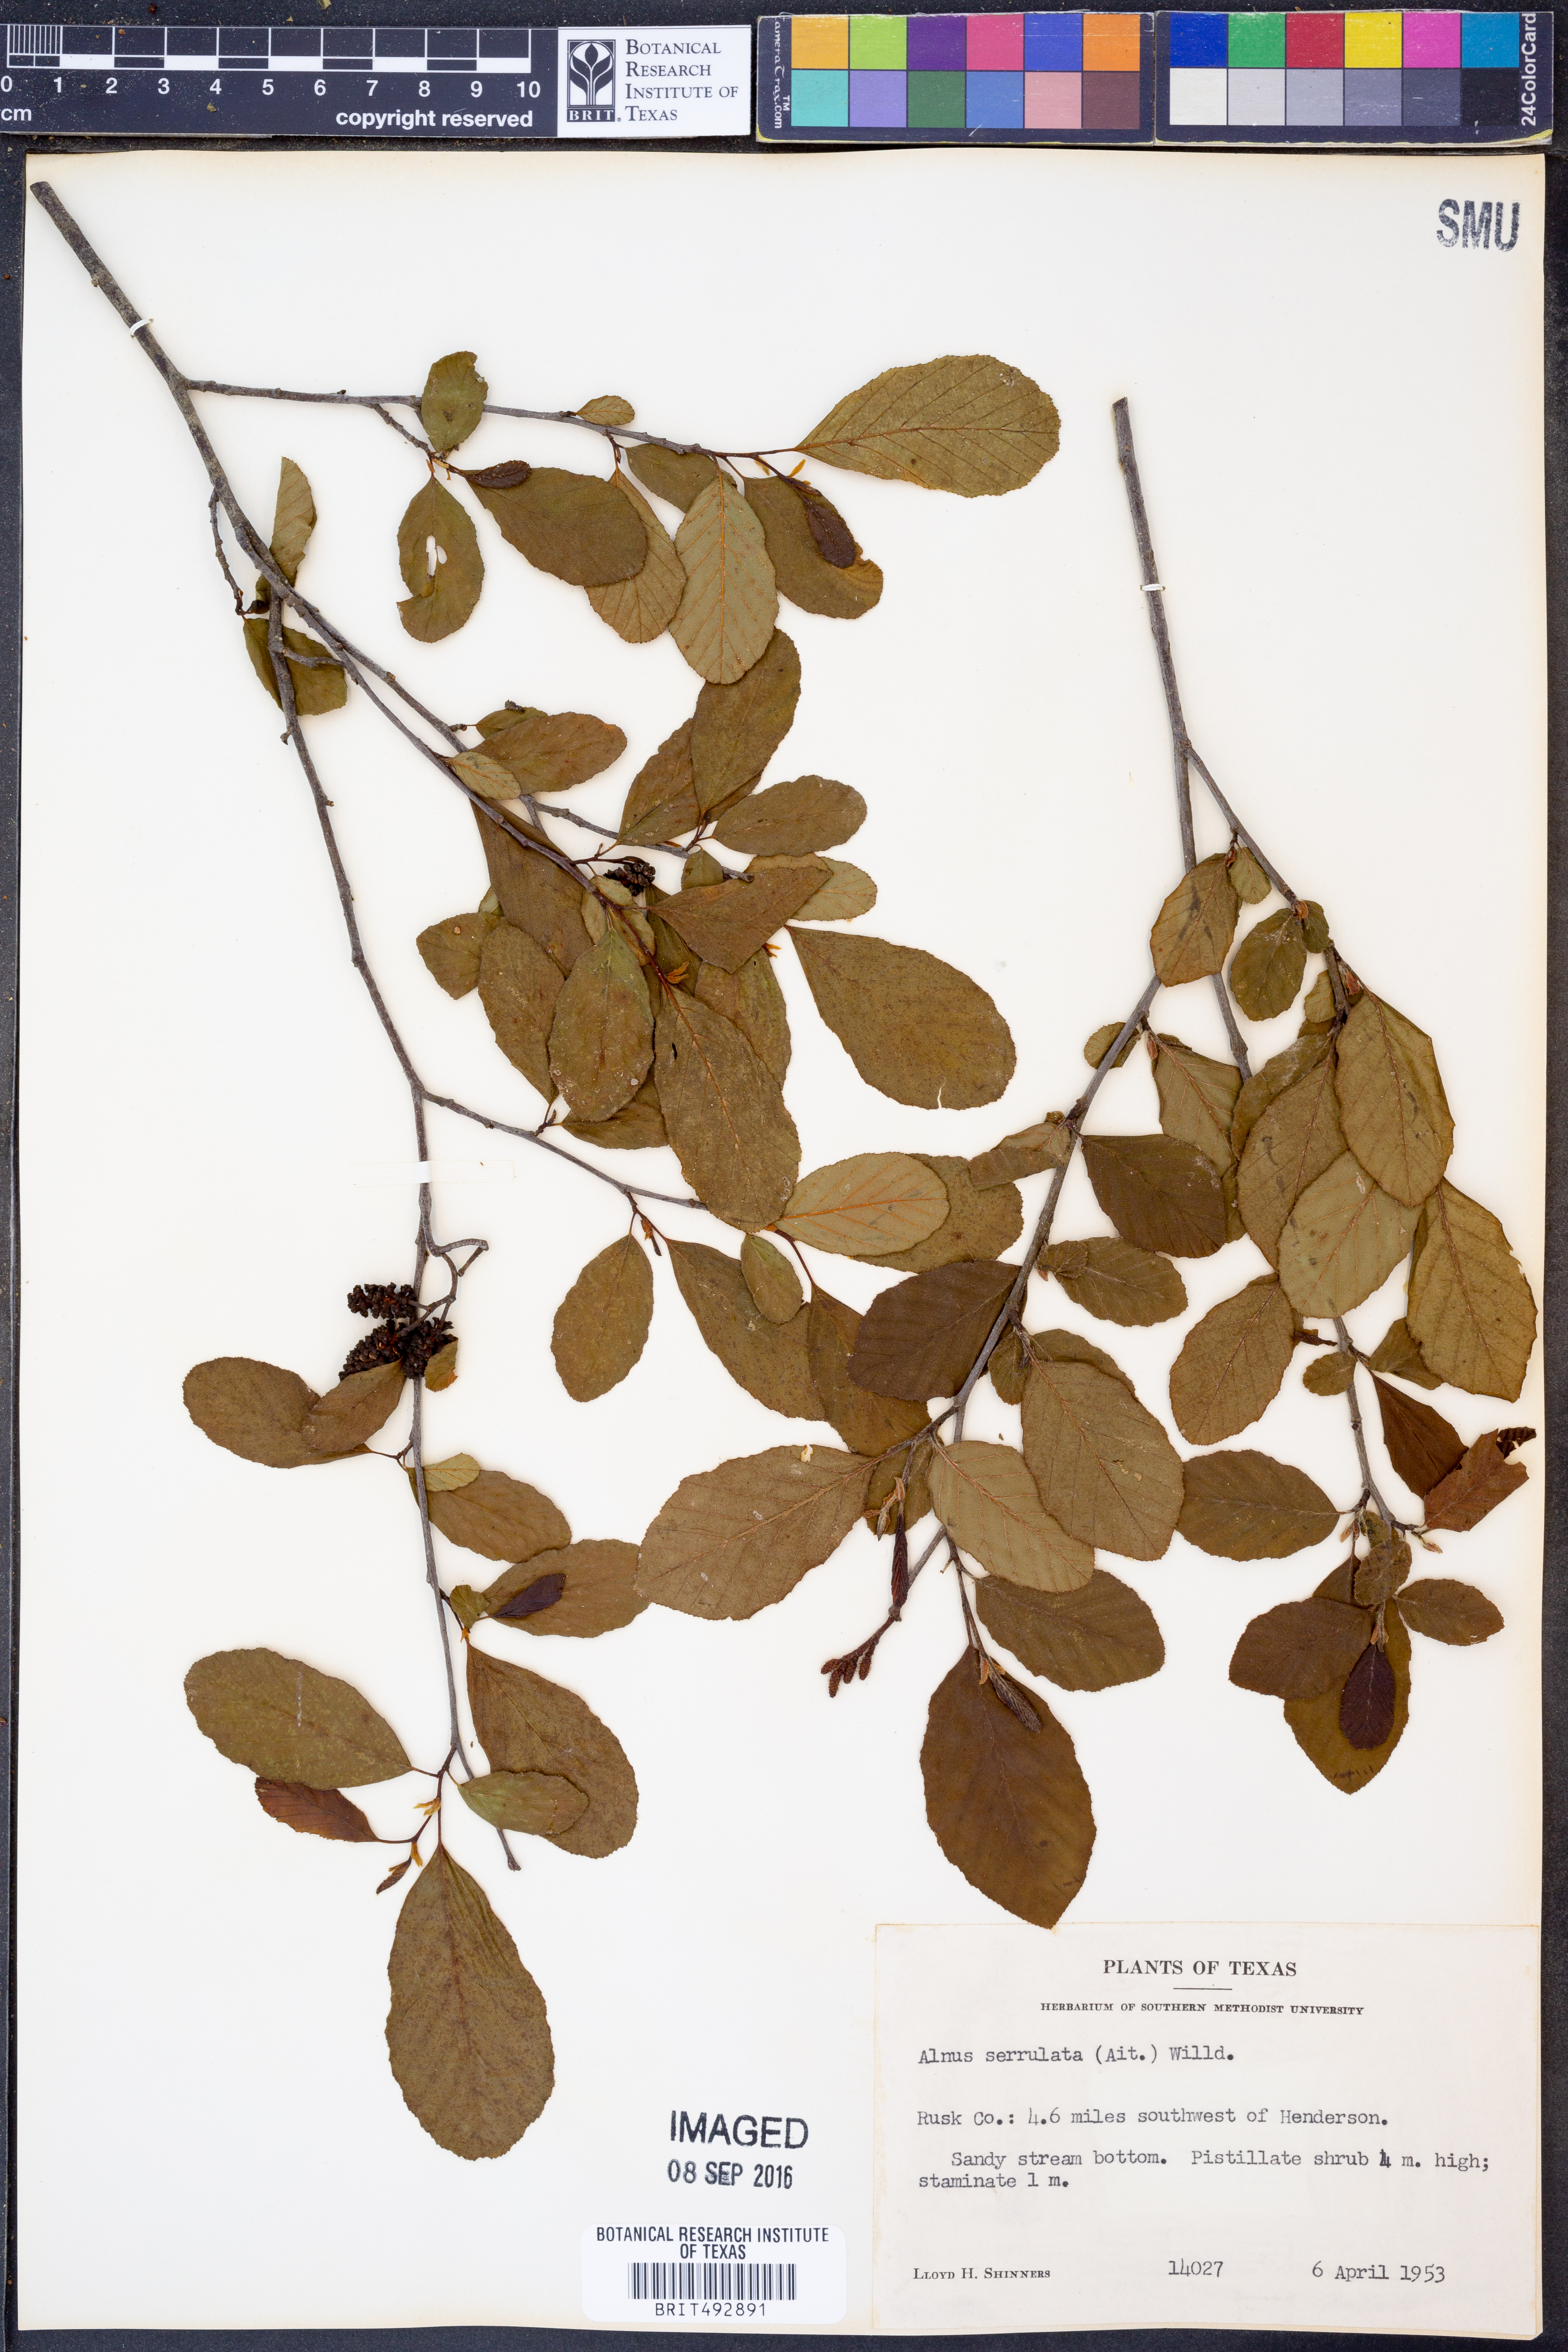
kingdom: Plantae
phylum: Tracheophyta
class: Magnoliopsida
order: Fagales
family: Betulaceae
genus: Alnus
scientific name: Alnus serrulata
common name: Hazel alder
